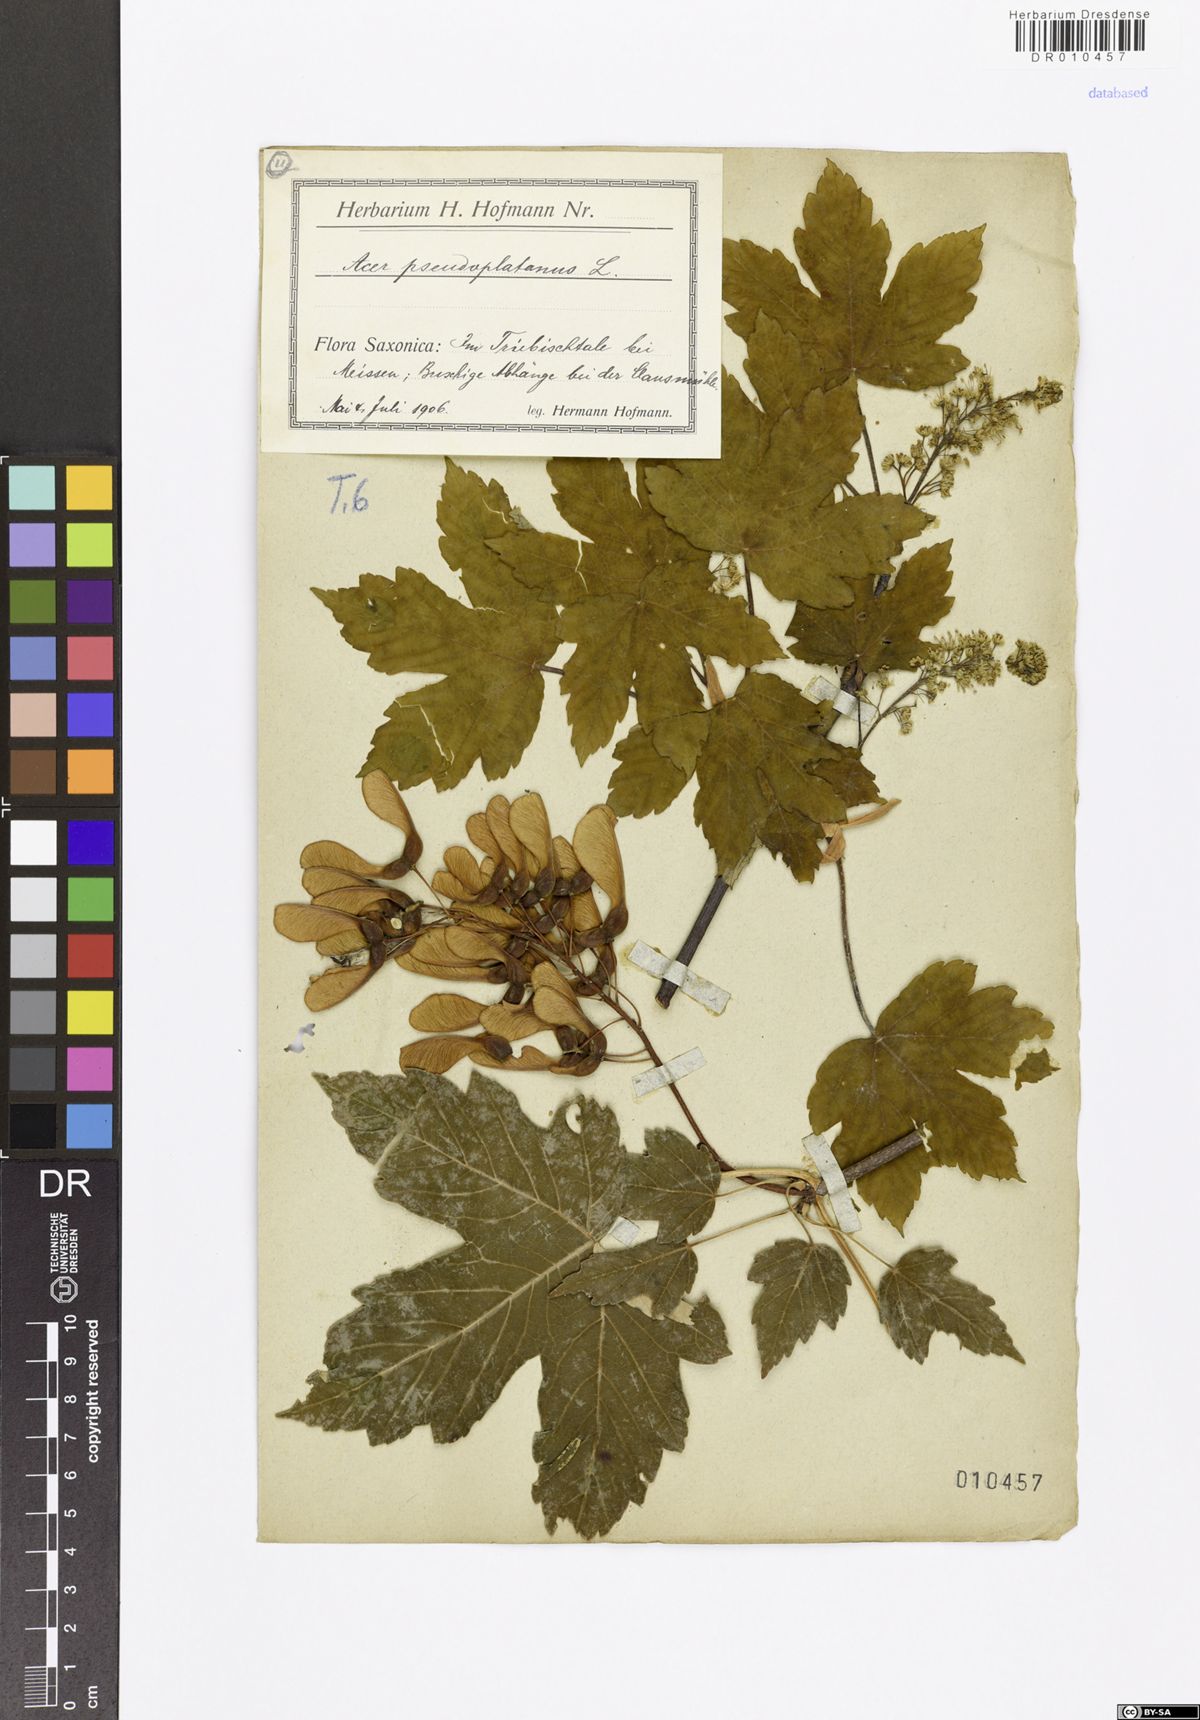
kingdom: Plantae
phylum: Tracheophyta
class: Magnoliopsida
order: Sapindales
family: Sapindaceae
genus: Acer
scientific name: Acer pseudoplatanus
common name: Sycamore
